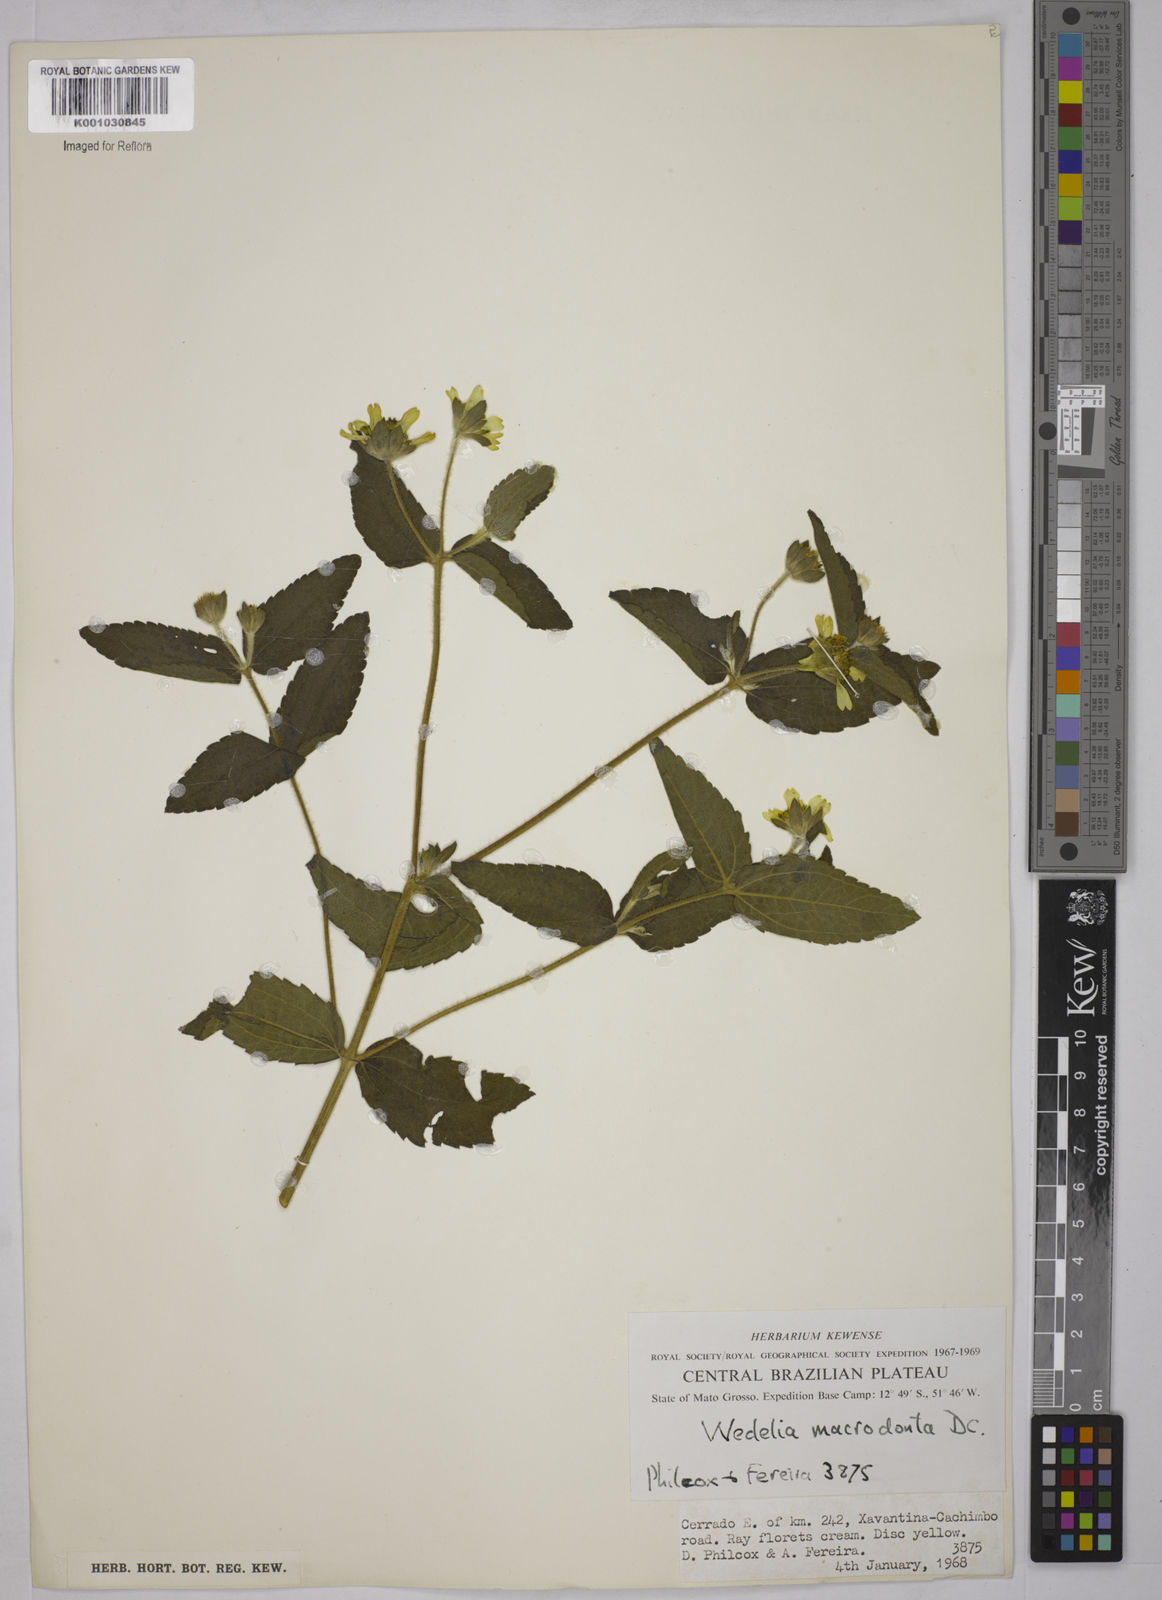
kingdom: Plantae
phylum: Tracheophyta
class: Magnoliopsida
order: Asterales
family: Asteraceae
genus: Wedelia
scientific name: Wedelia macrodonta
